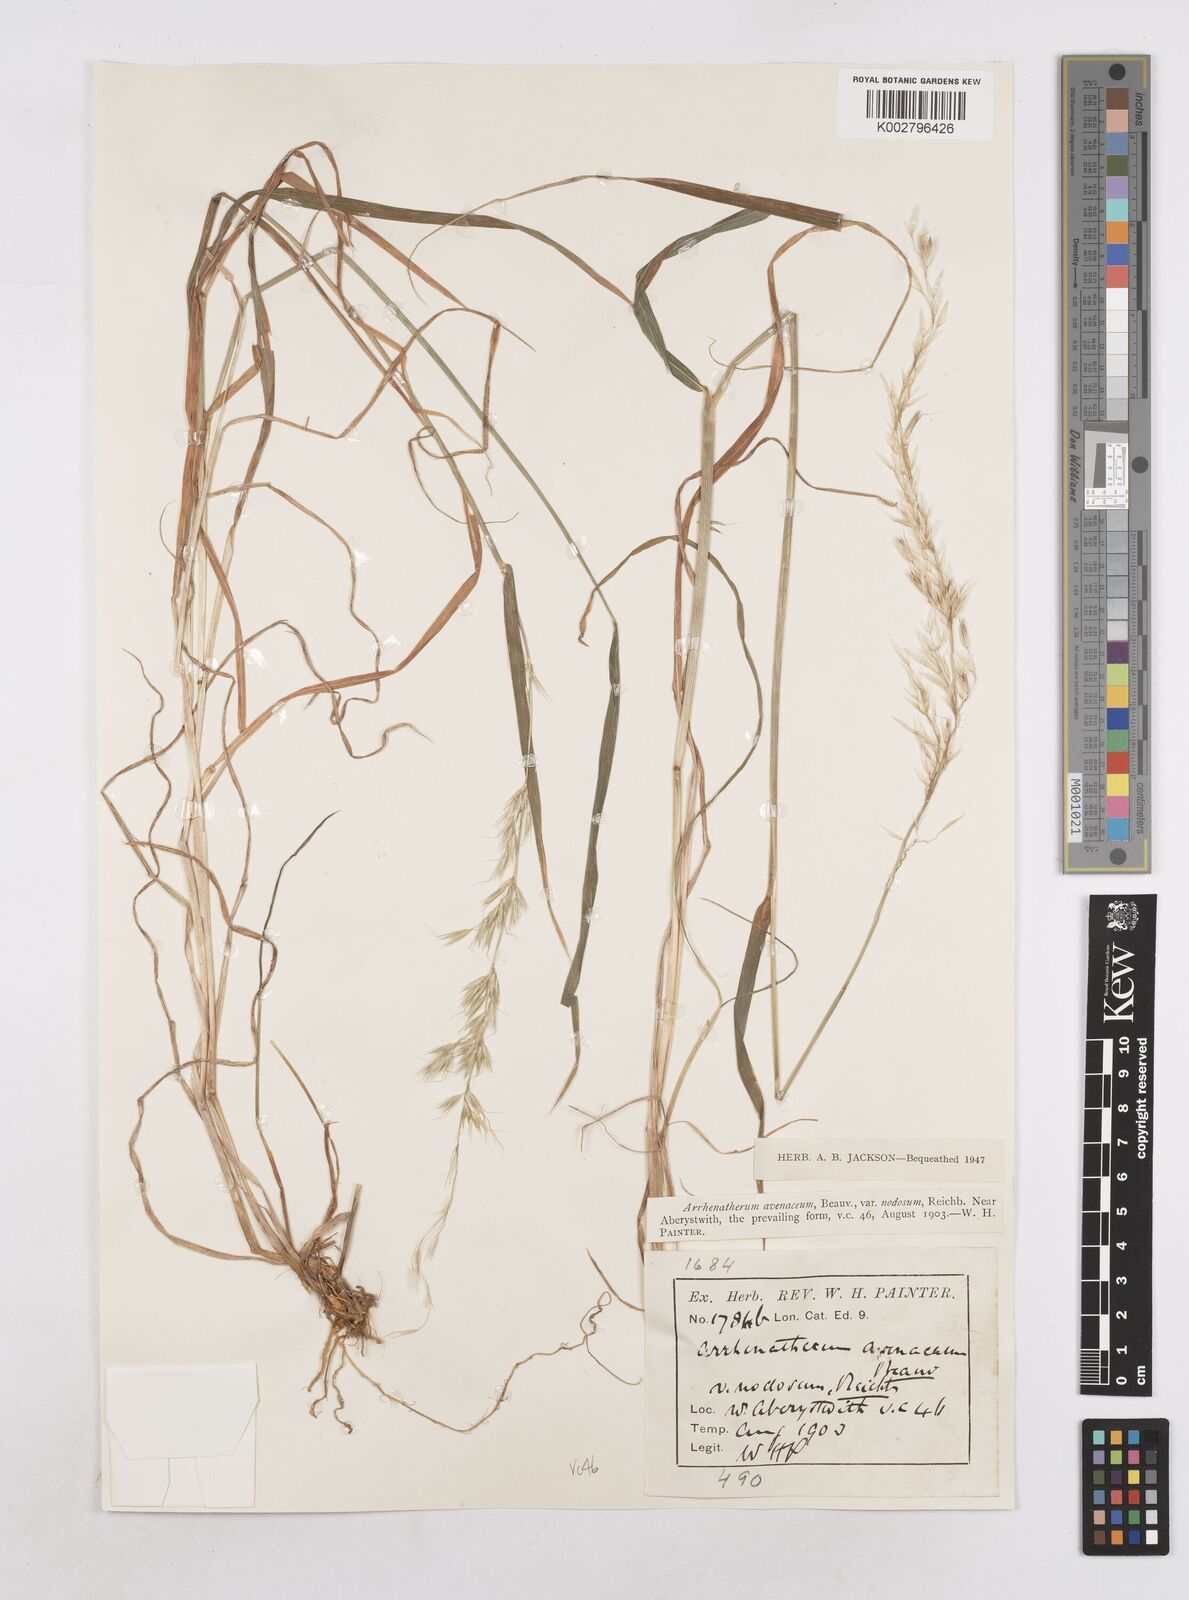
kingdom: Plantae
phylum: Tracheophyta
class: Liliopsida
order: Poales
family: Poaceae
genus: Arrhenatherum
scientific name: Arrhenatherum elatius
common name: Tall oatgrass
